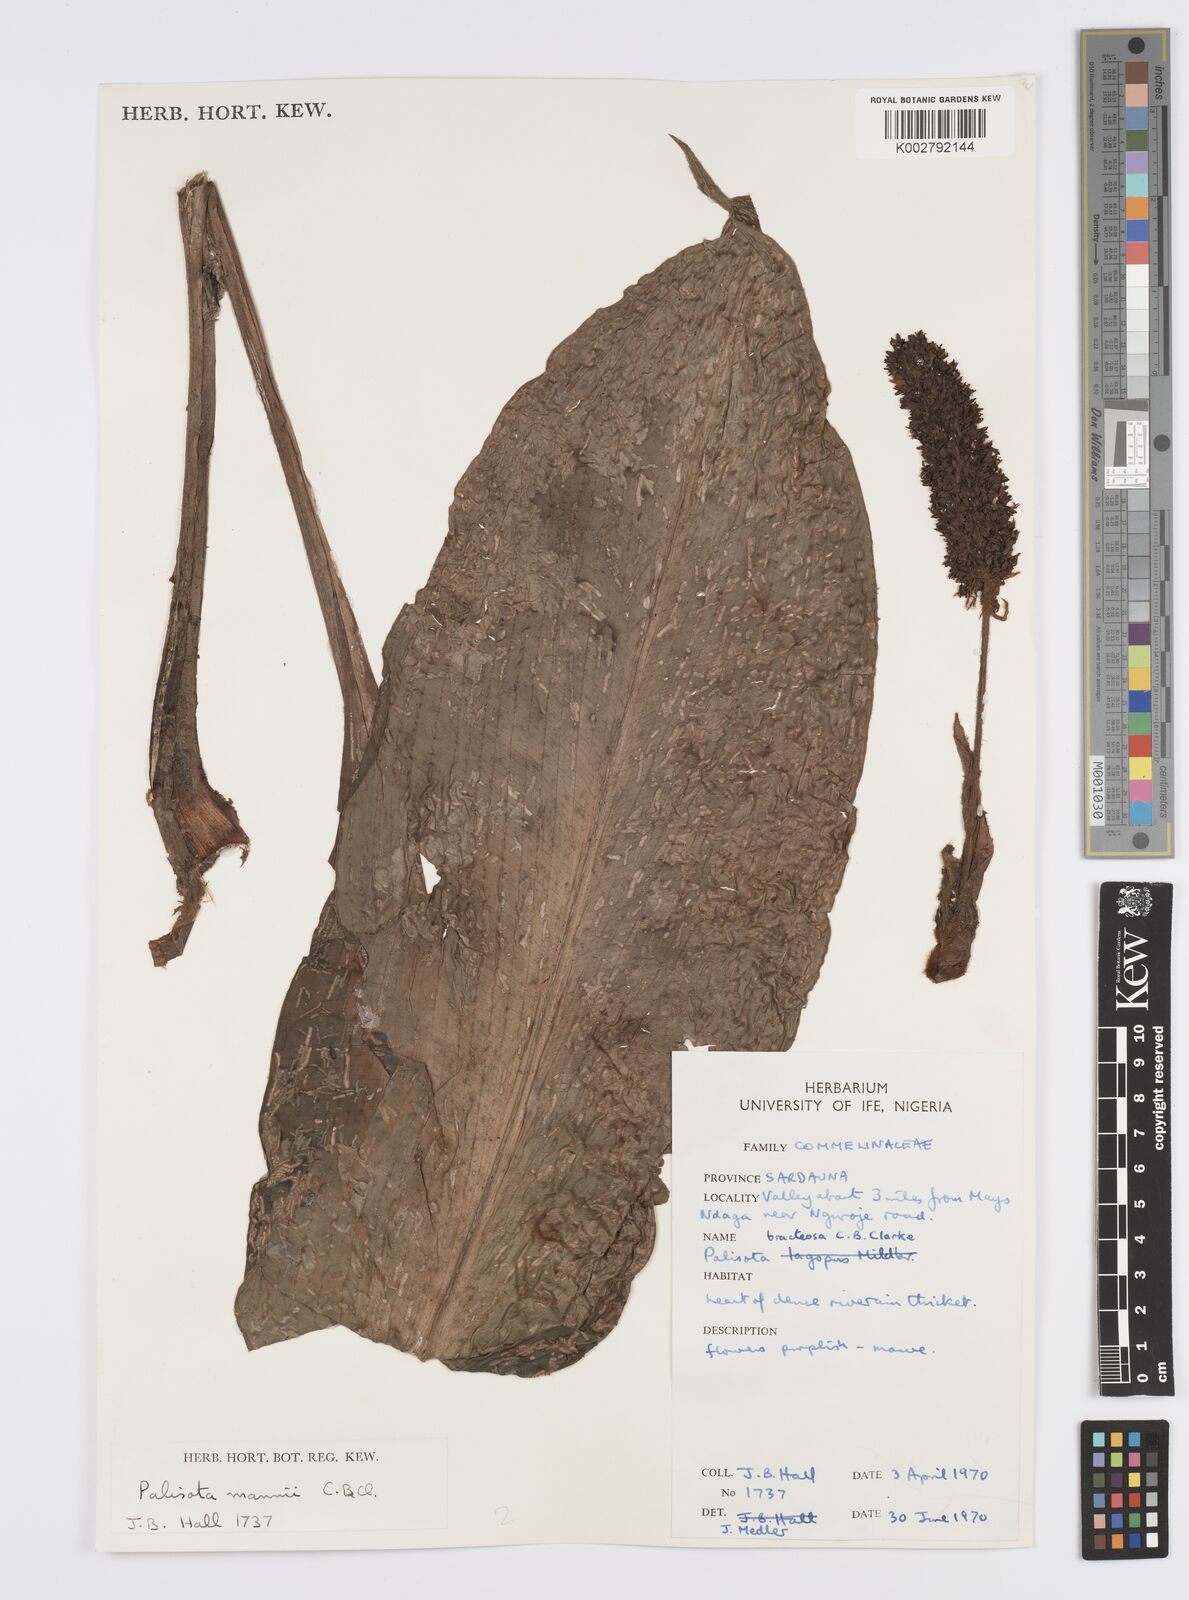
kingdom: Plantae
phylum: Tracheophyta
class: Liliopsida
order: Commelinales
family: Commelinaceae
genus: Palisota
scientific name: Palisota mannii
